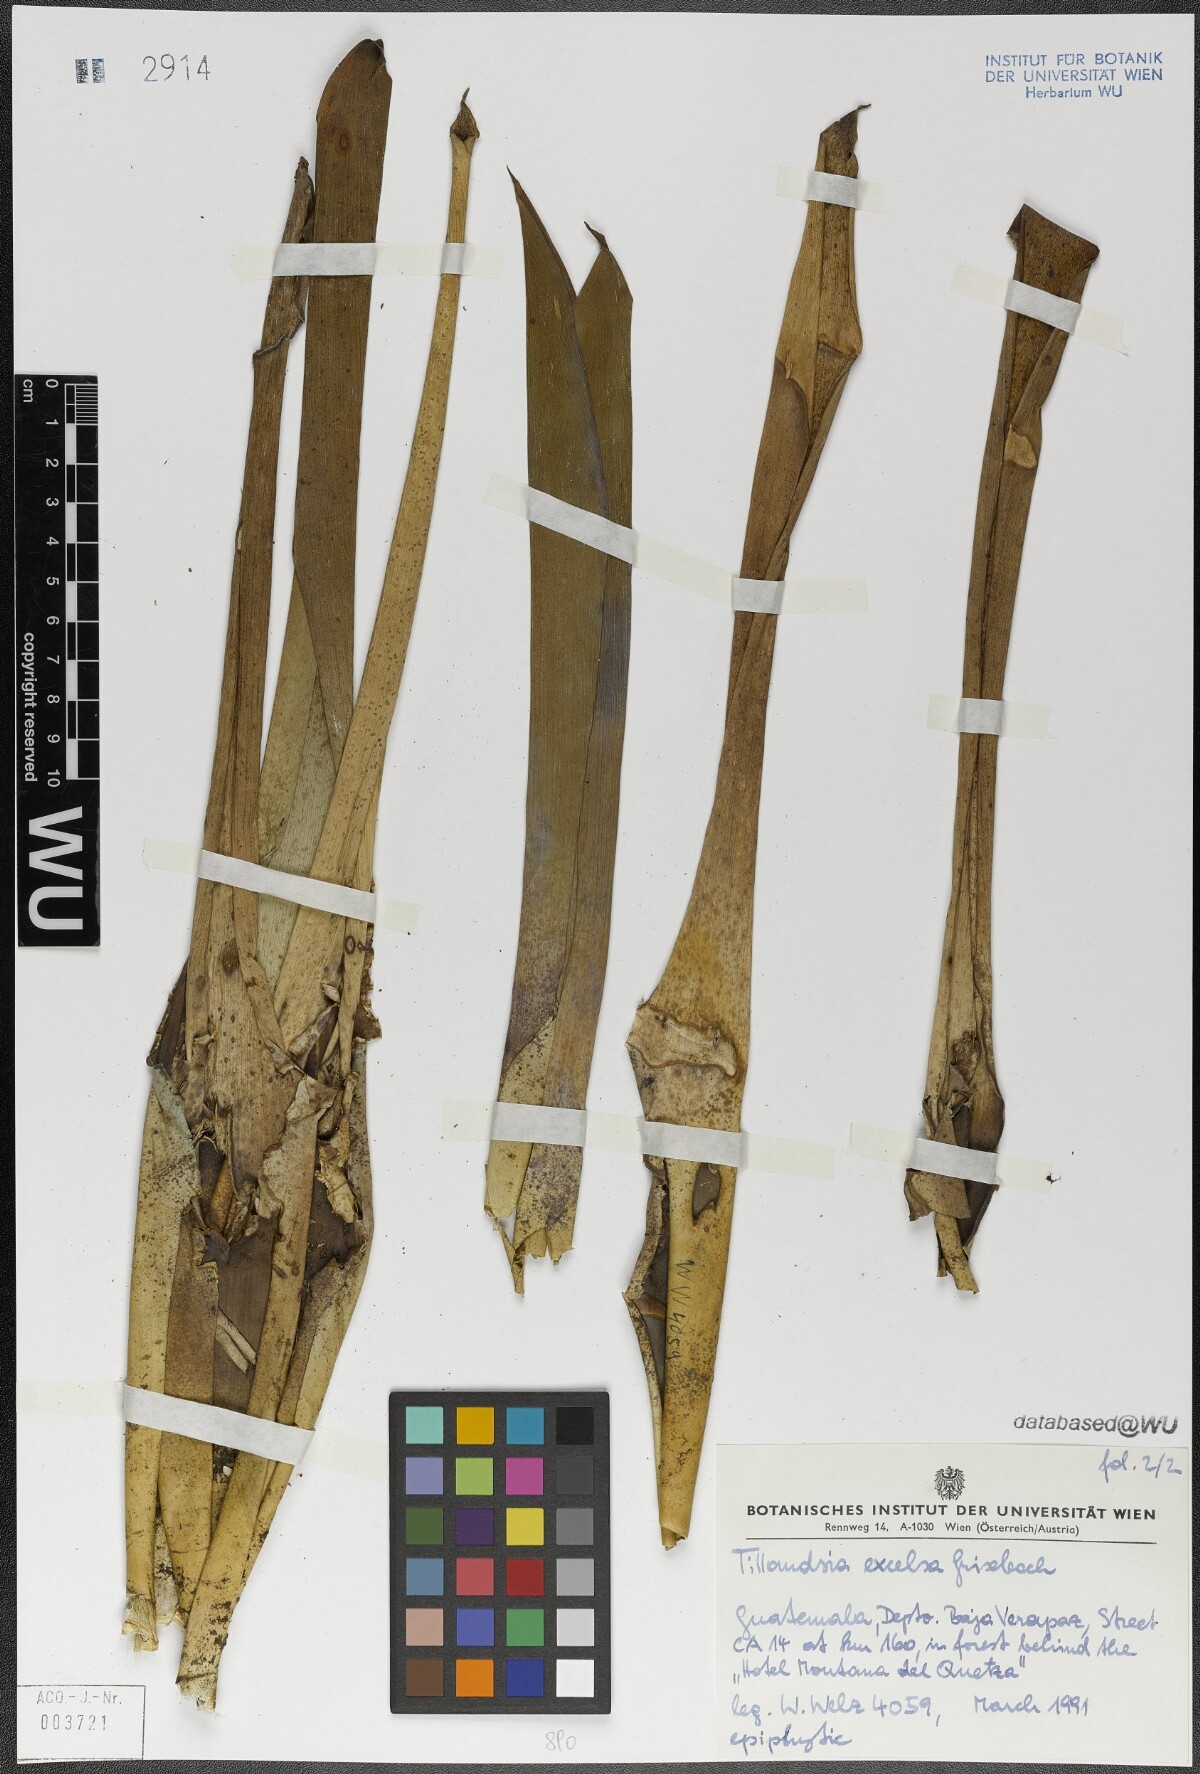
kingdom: Plantae
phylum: Tracheophyta
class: Liliopsida
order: Poales
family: Bromeliaceae
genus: Tillandsia
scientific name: Tillandsia excelsa
